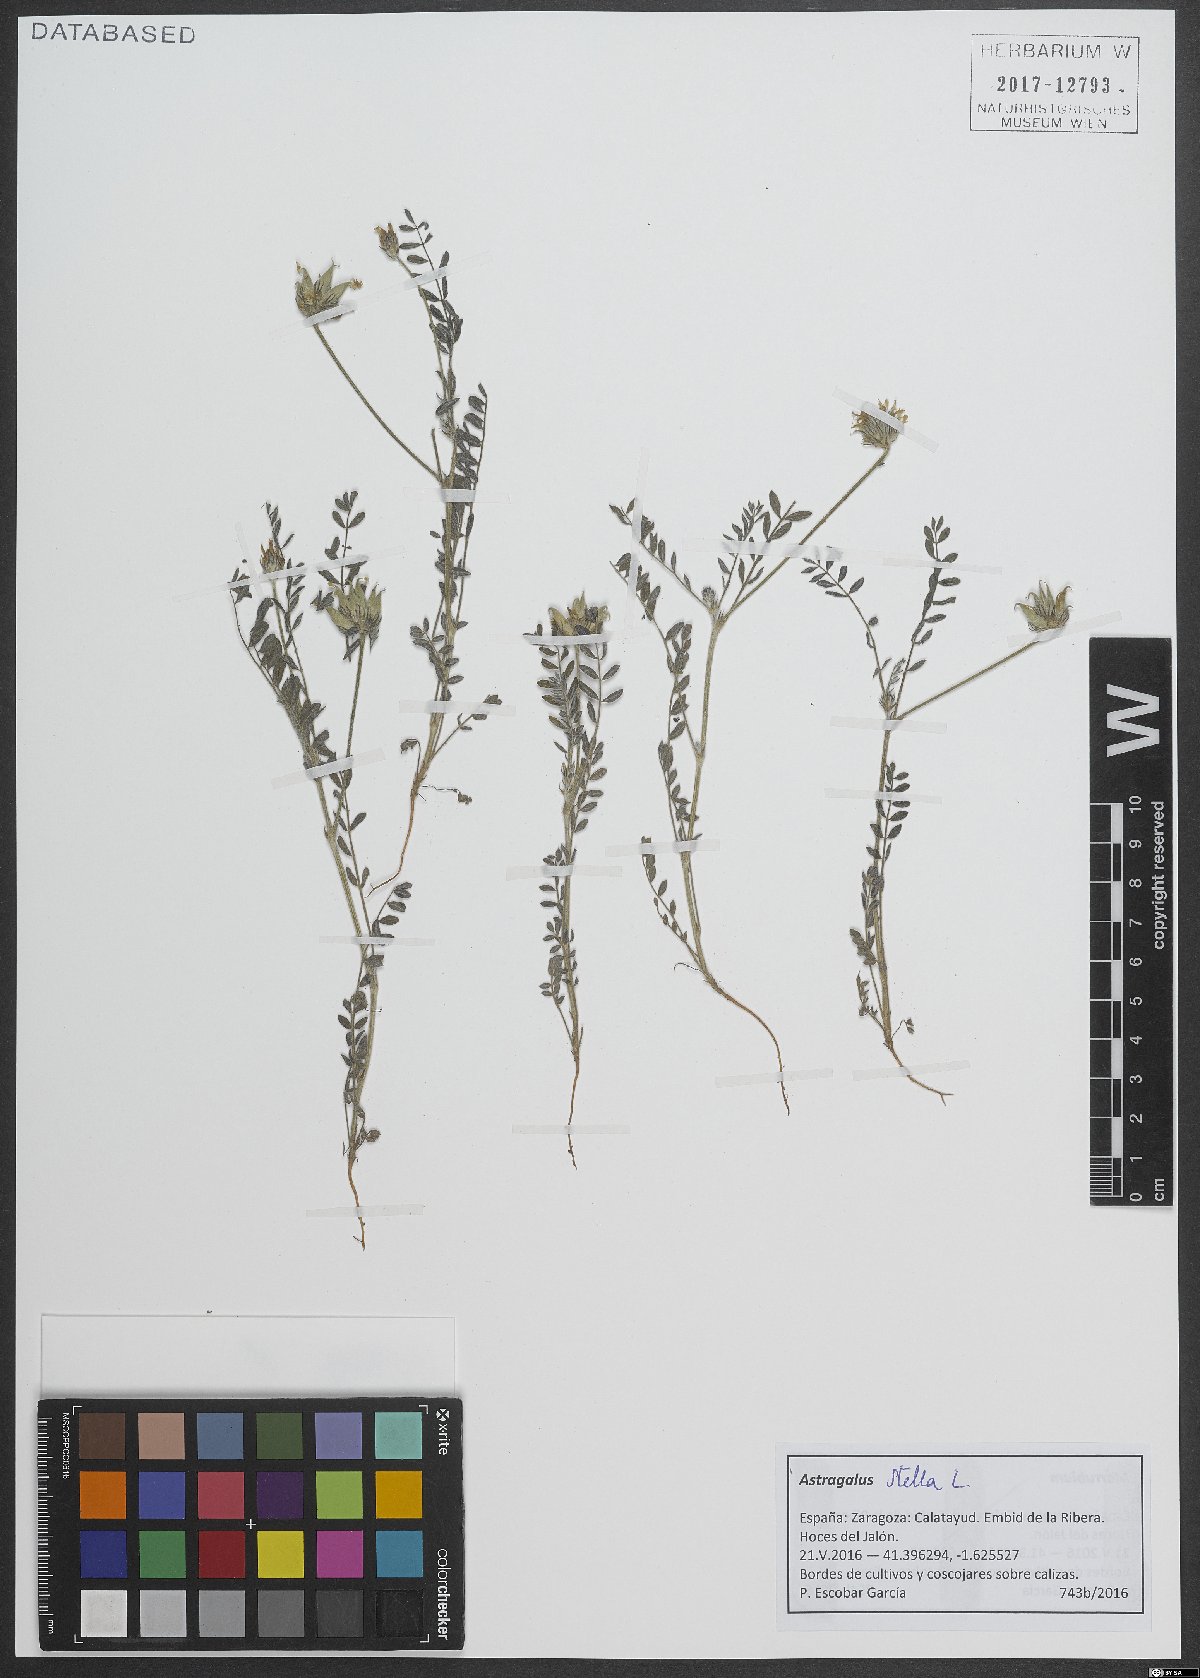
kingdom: Plantae
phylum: Tracheophyta
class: Magnoliopsida
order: Fabales
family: Fabaceae
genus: Astragalus
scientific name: Astragalus stella
